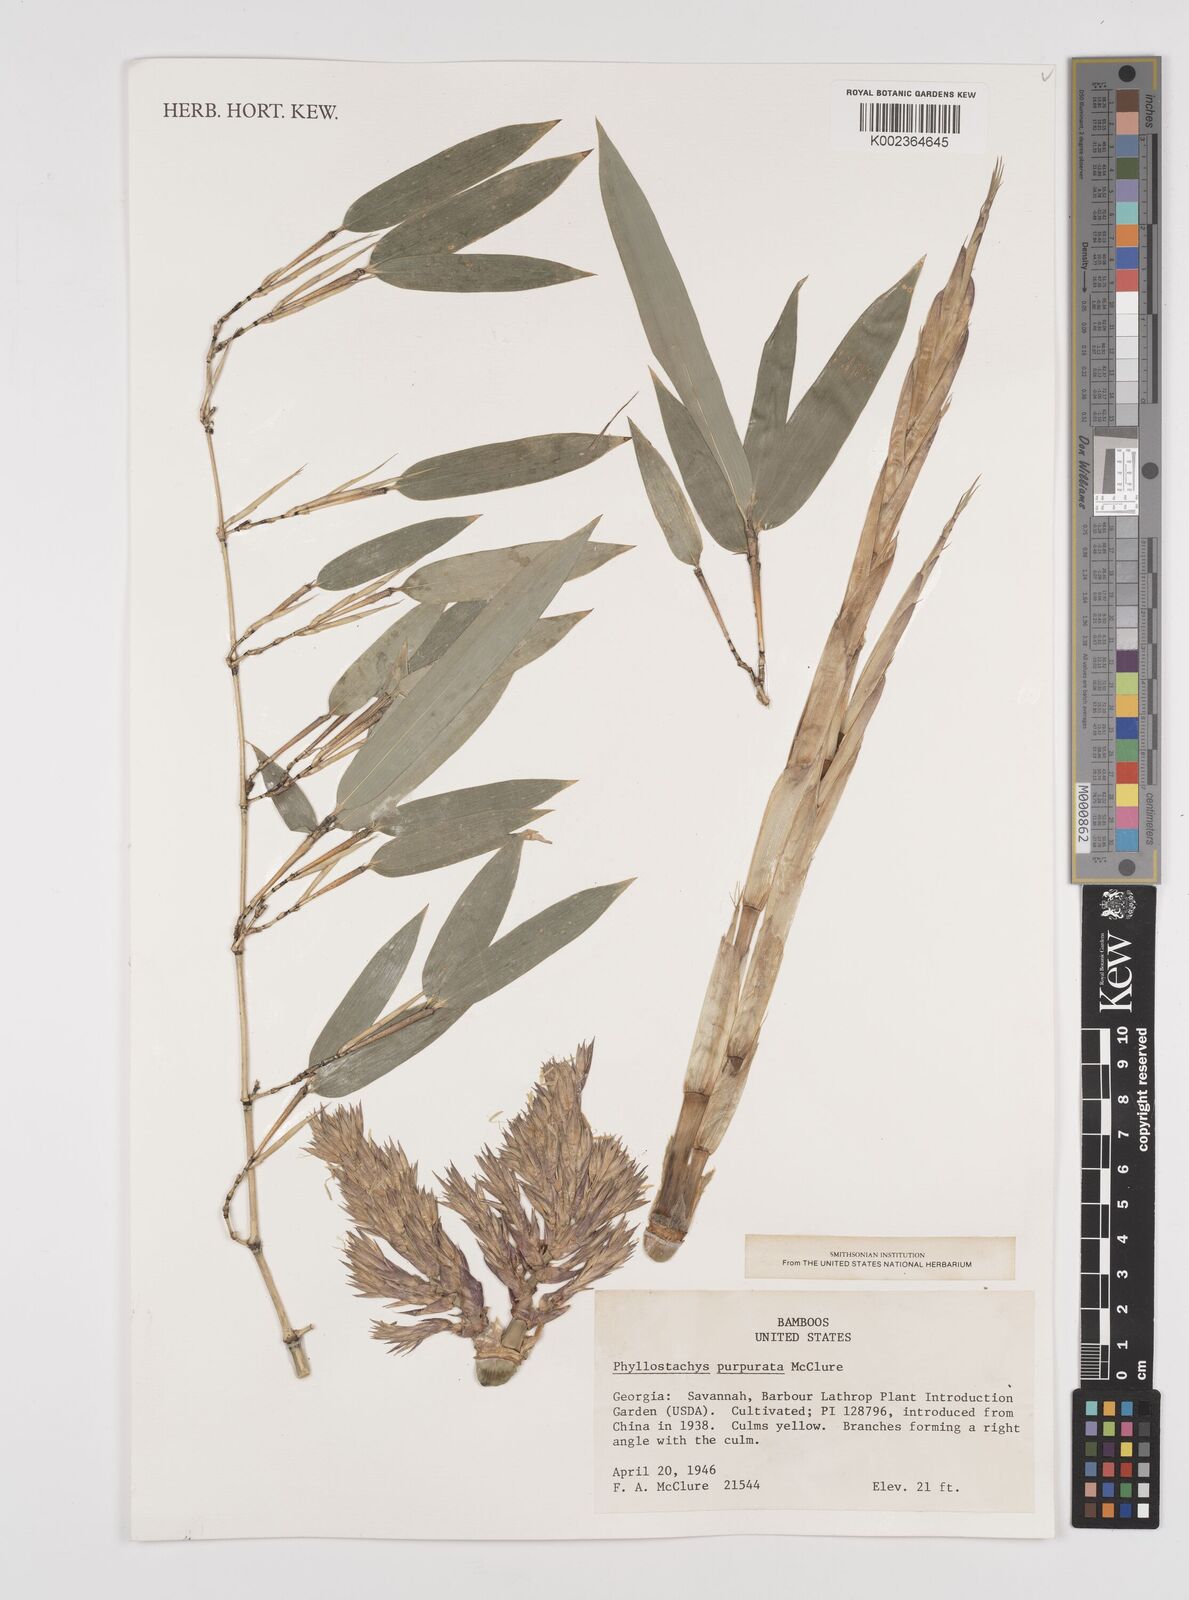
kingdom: Plantae
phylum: Tracheophyta
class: Liliopsida
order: Poales
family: Poaceae
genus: Phyllostachys
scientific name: Phyllostachys heteroclada
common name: Fishscale bamboo
